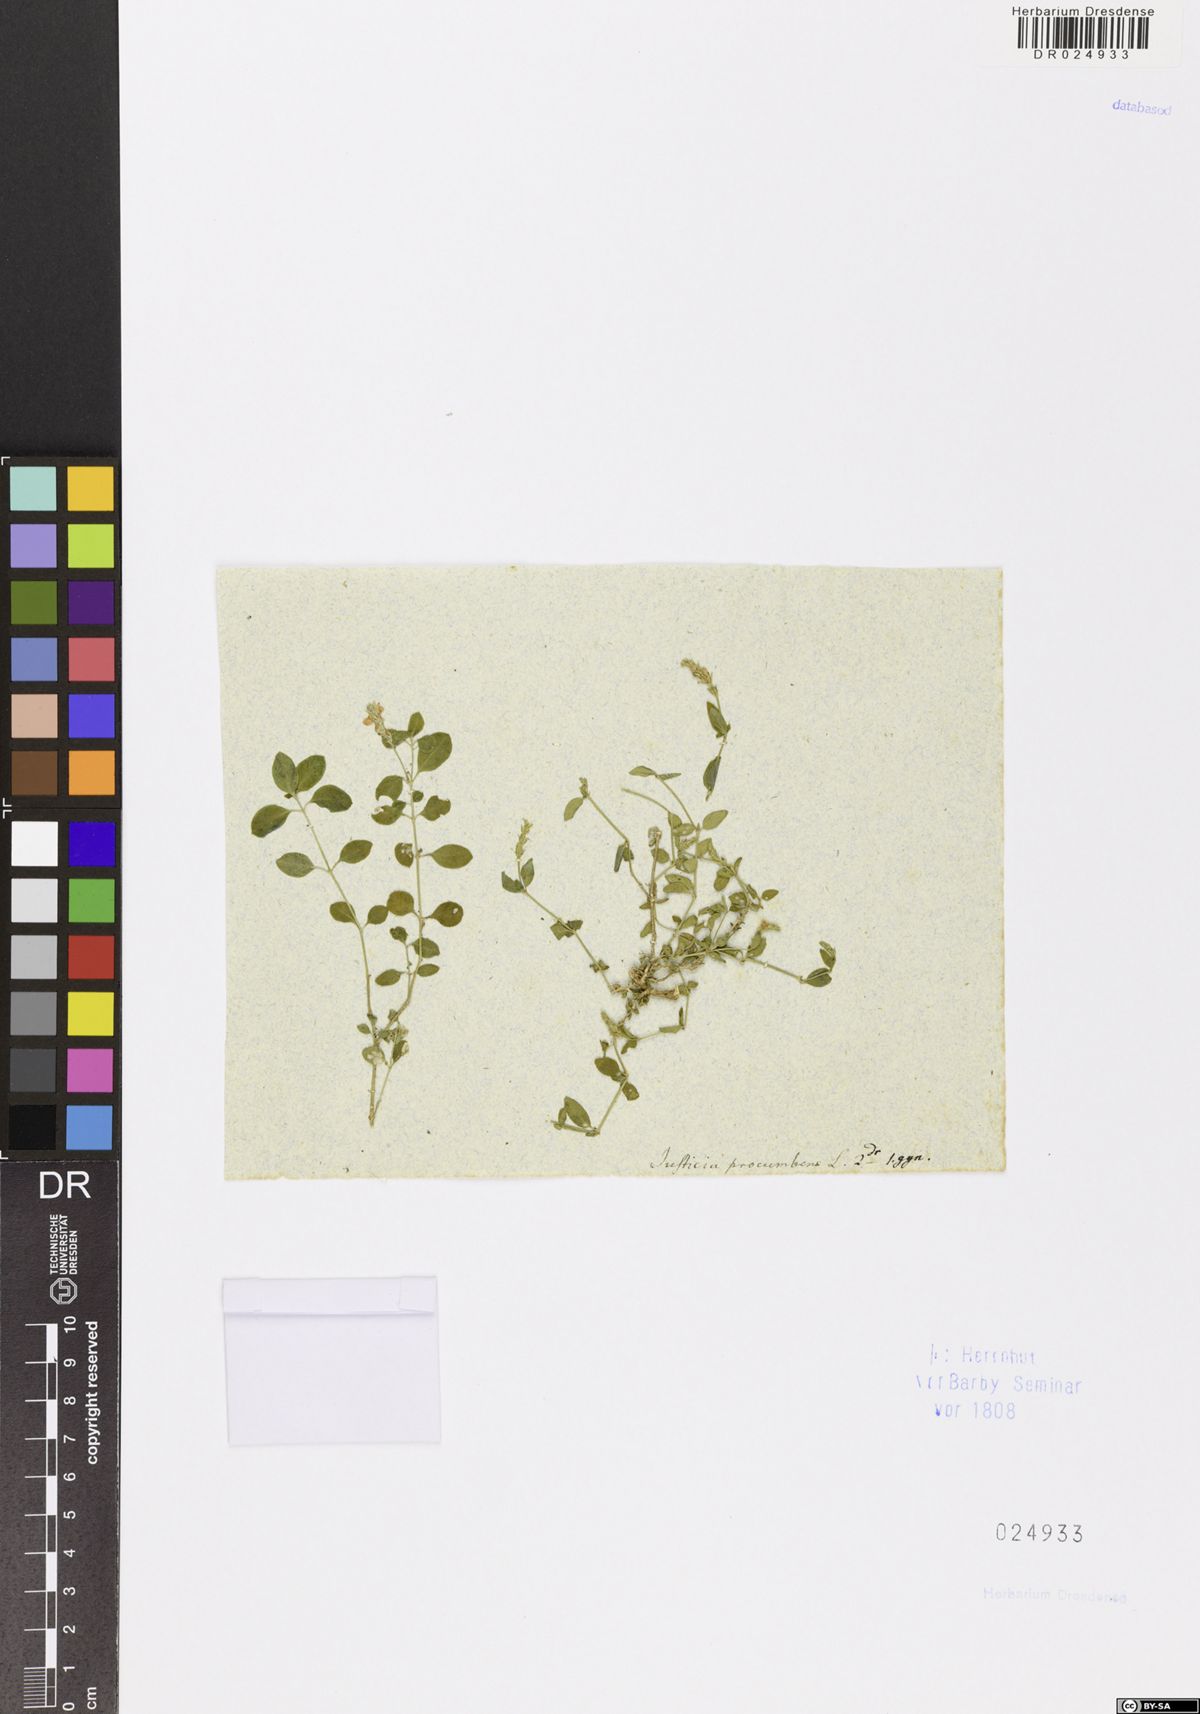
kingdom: Plantae
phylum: Tracheophyta
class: Magnoliopsida
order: Lamiales
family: Acanthaceae
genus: Rostellularia
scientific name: Rostellularia procumbens
